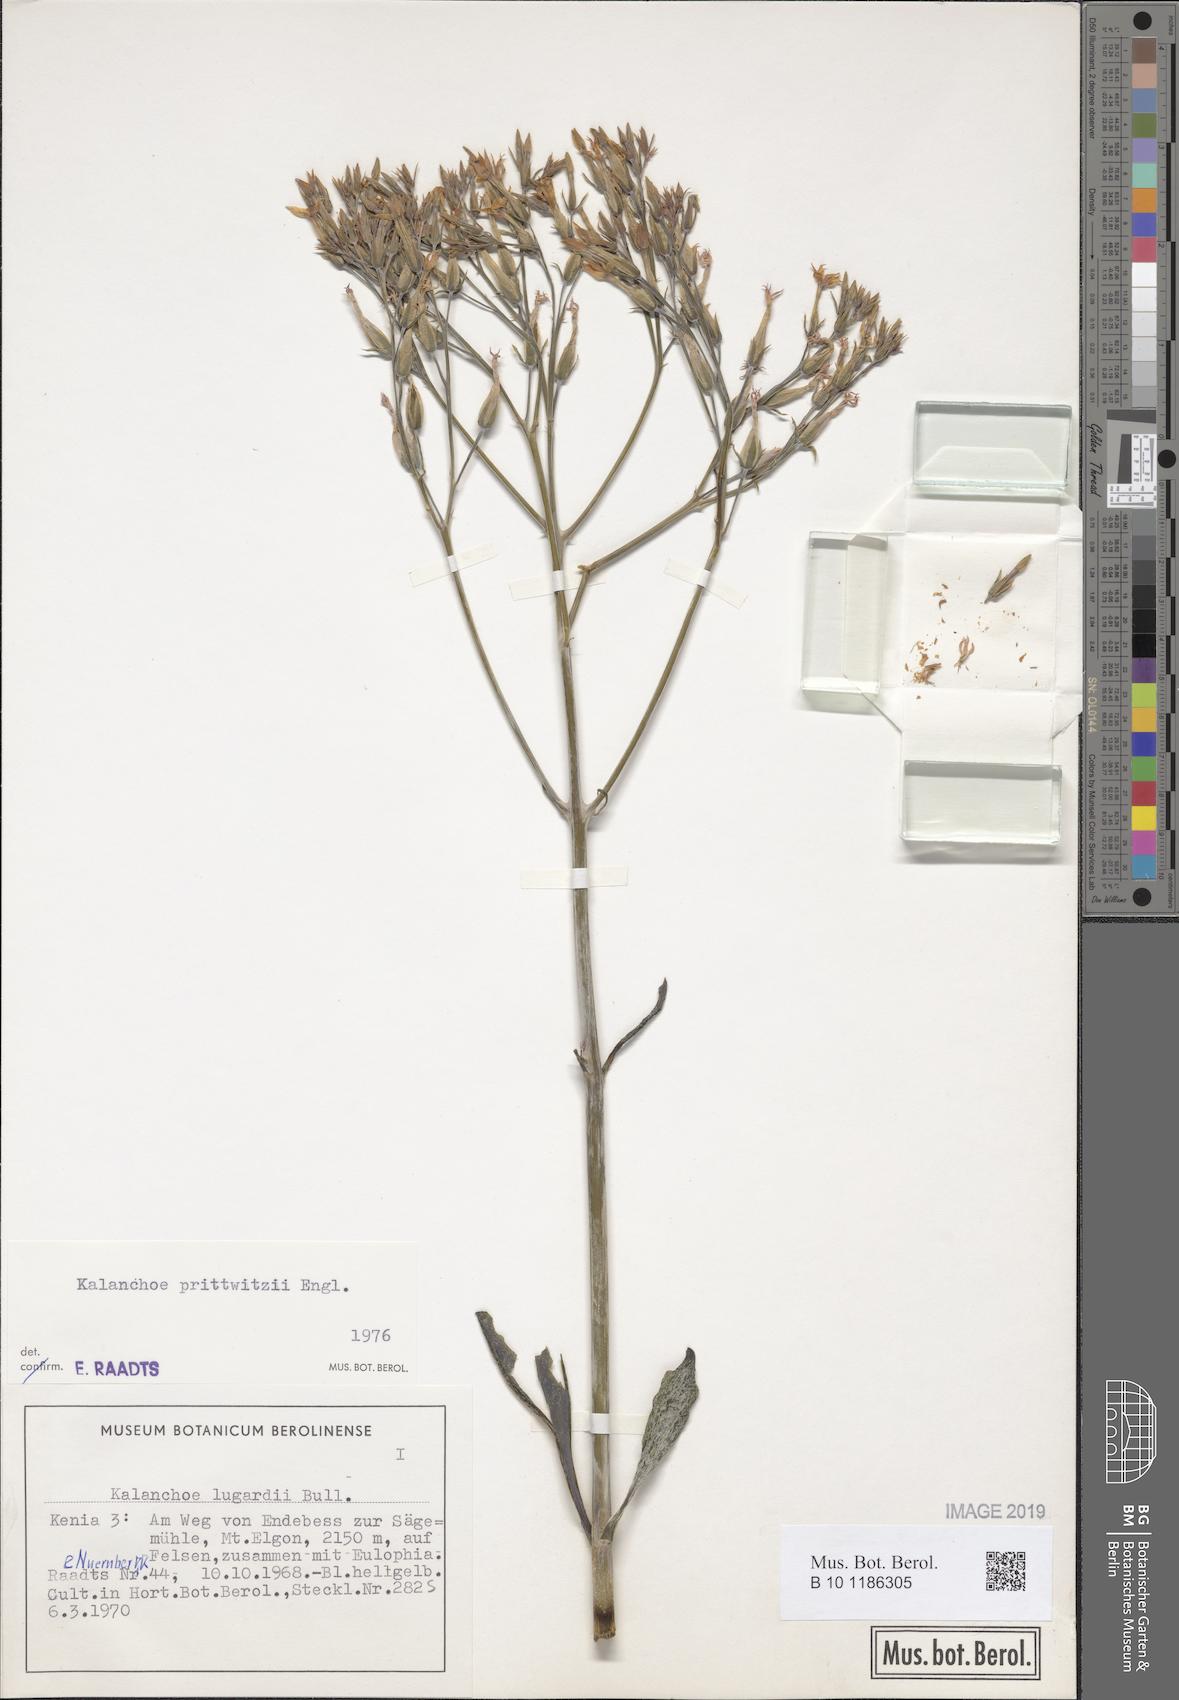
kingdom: Plantae
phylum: Tracheophyta
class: Magnoliopsida
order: Saxifragales
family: Crassulaceae
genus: Kalanchoe
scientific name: Kalanchoe prittwitzii
